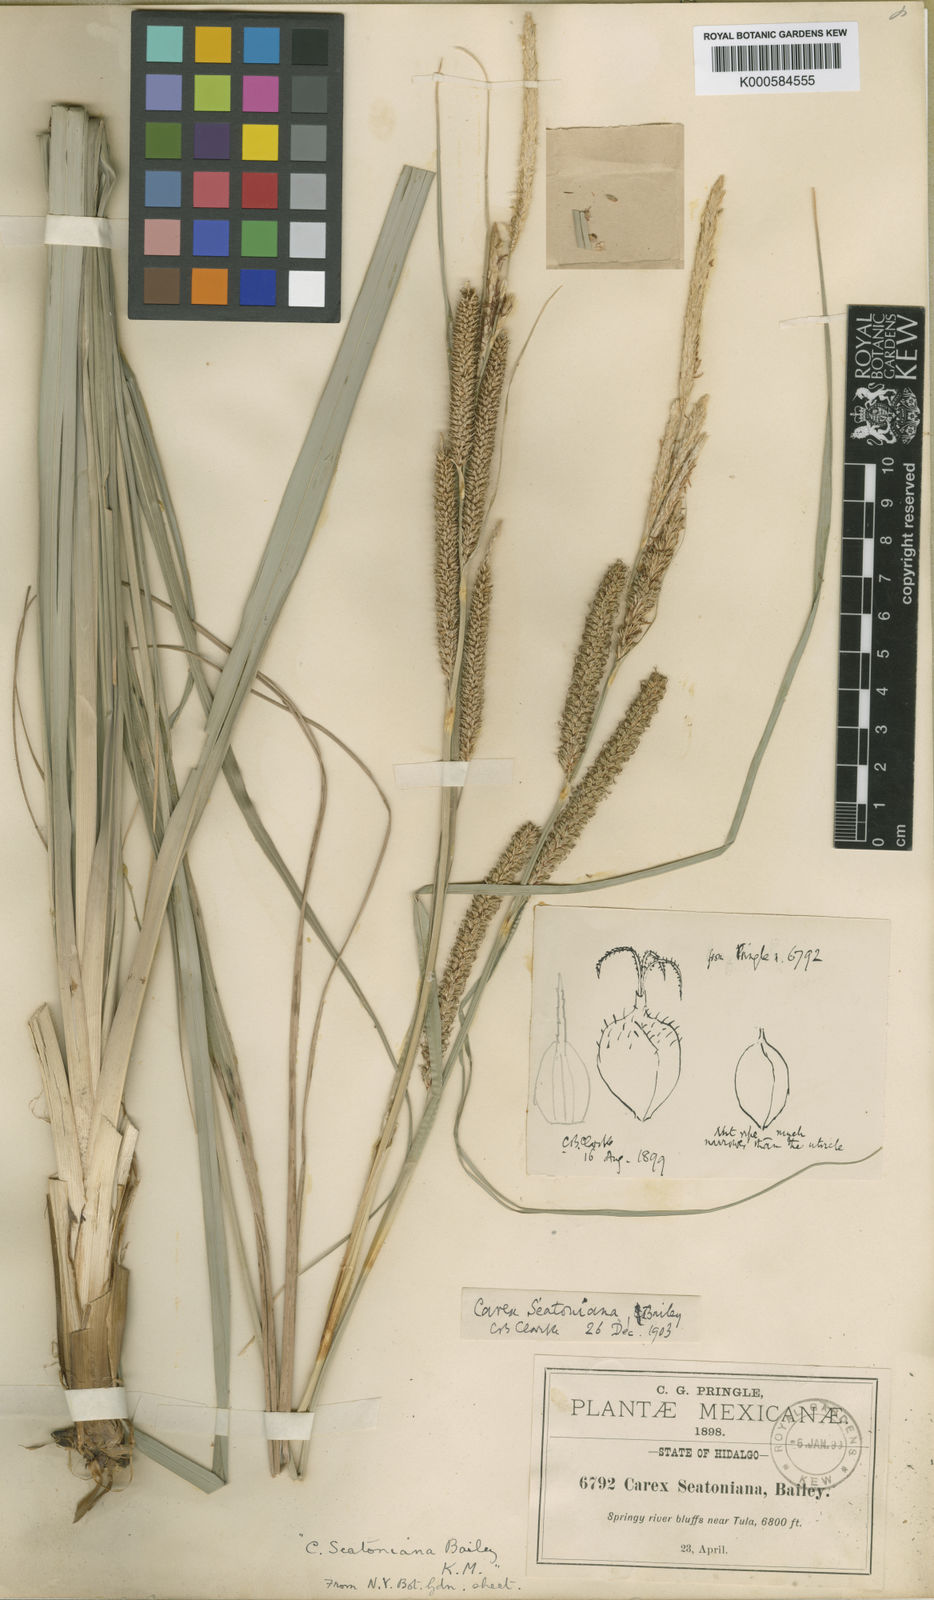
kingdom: Plantae
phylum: Tracheophyta
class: Liliopsida
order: Poales
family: Cyperaceae
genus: Carex
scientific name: Carex spissa
